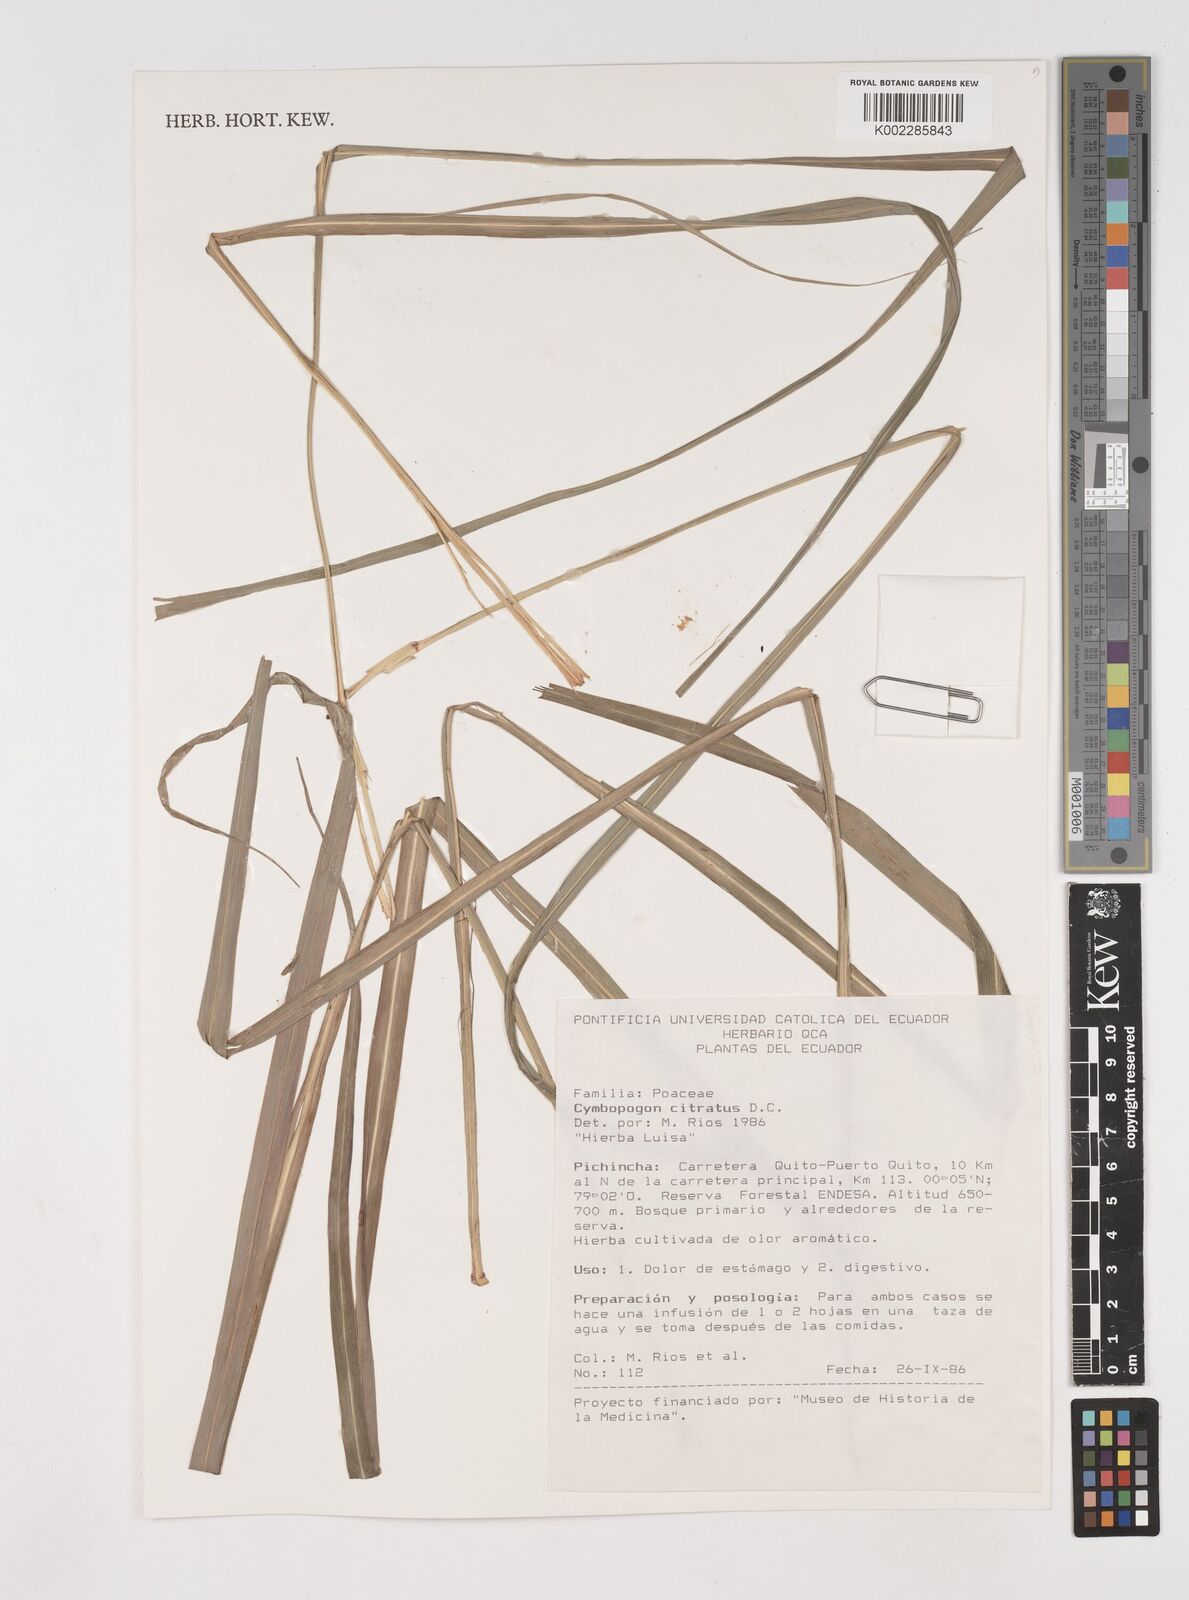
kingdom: Plantae
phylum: Tracheophyta
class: Liliopsida
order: Poales
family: Poaceae
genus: Cymbopogon
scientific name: Cymbopogon citratus
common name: Lemon grass
